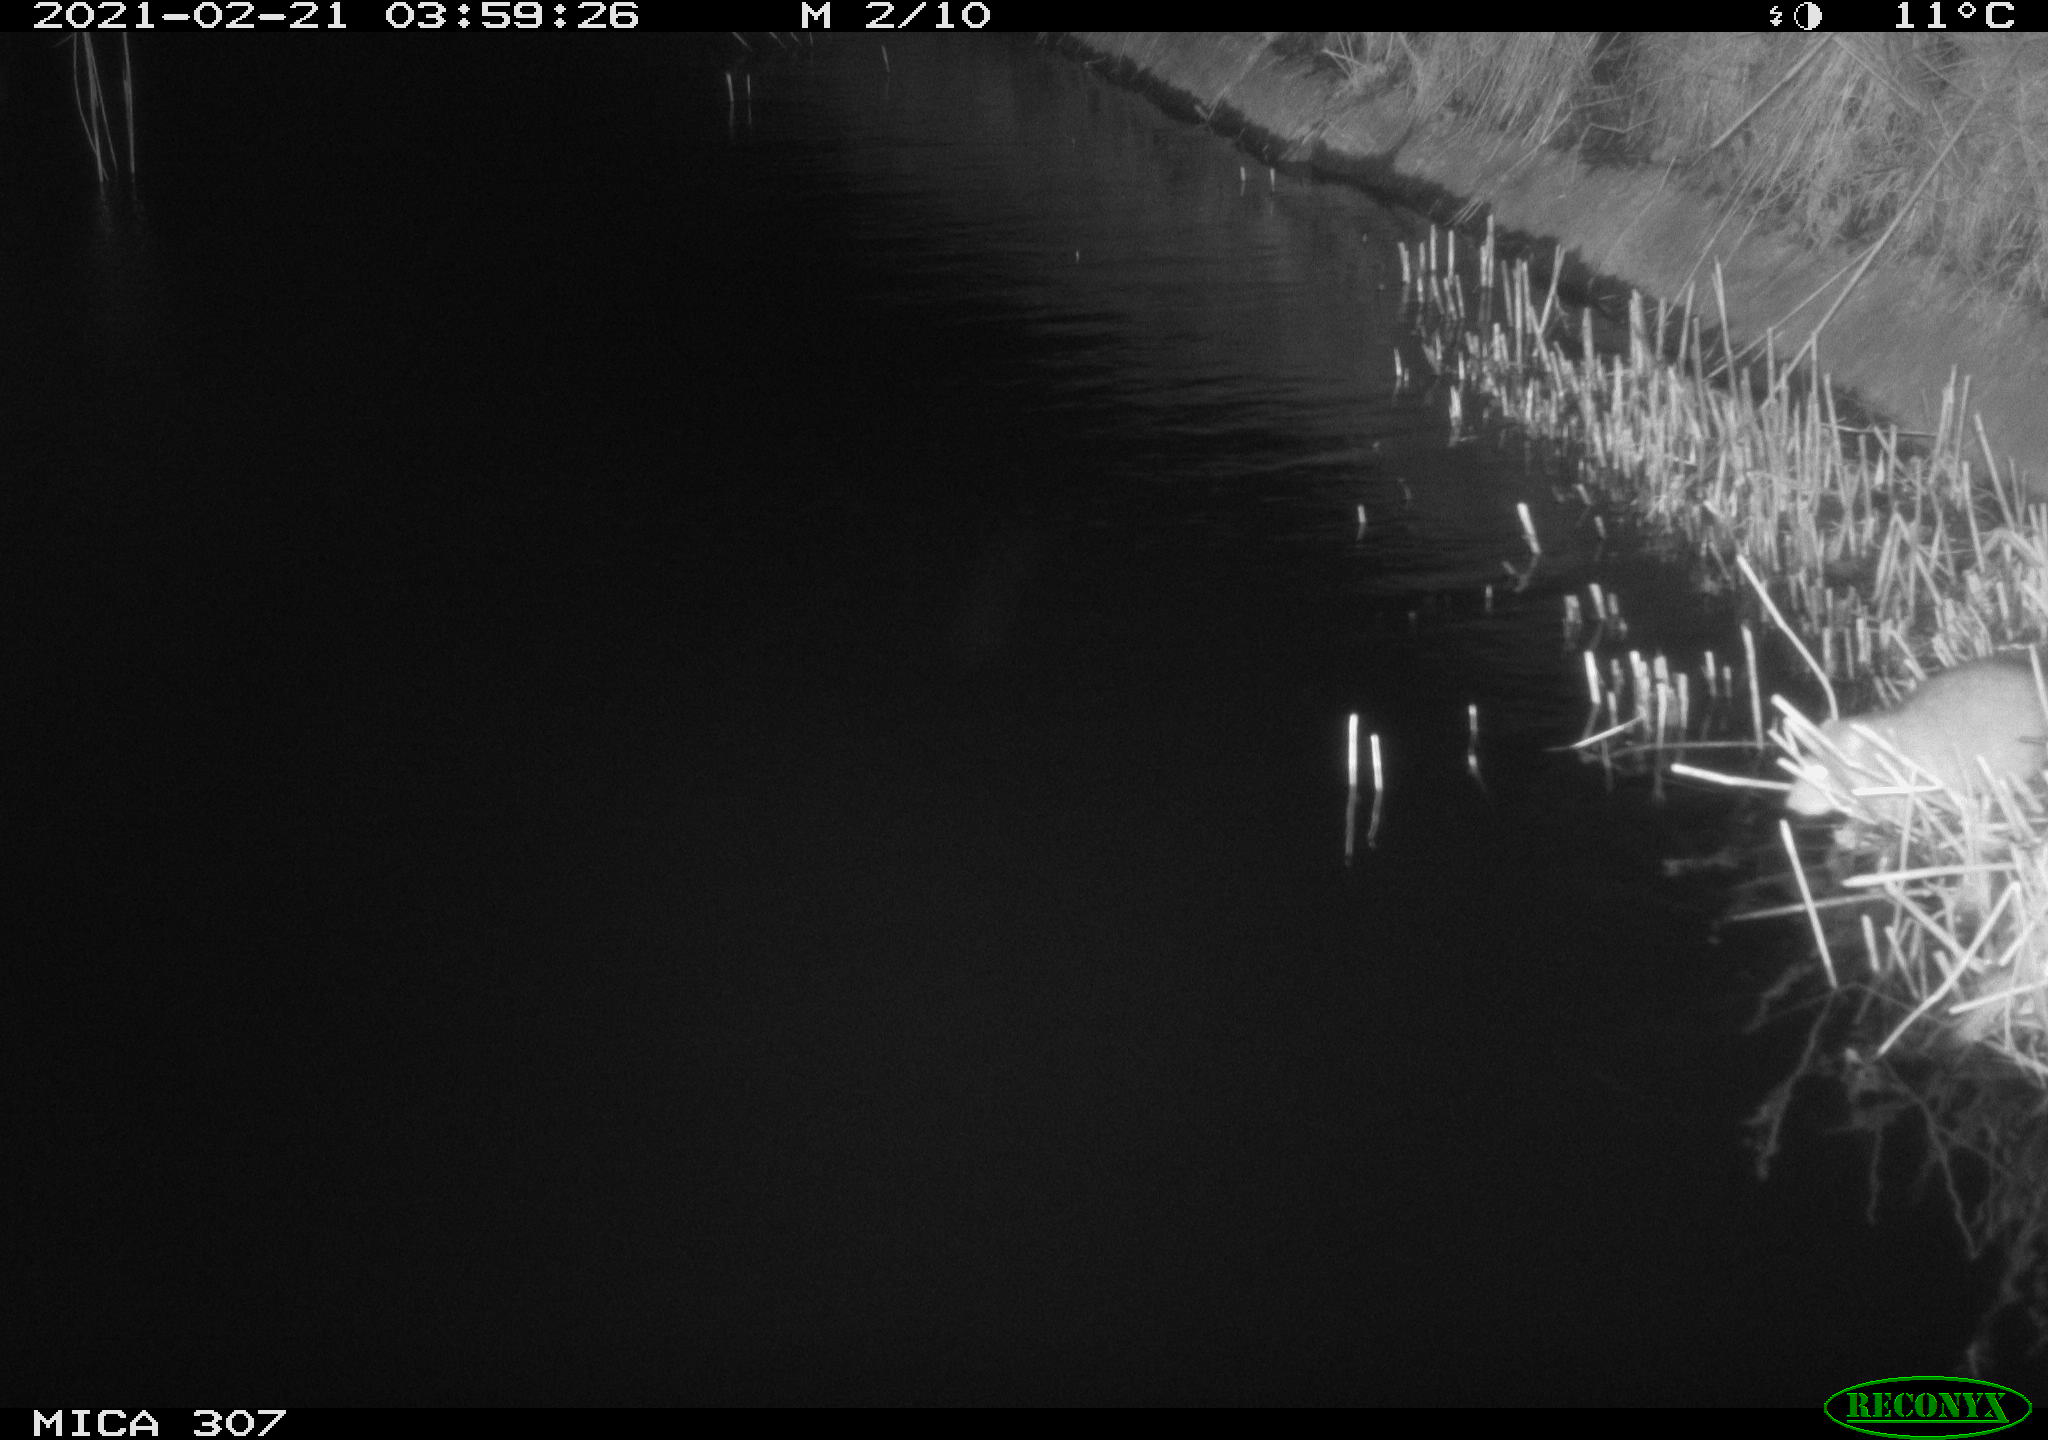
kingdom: Animalia
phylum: Chordata
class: Mammalia
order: Rodentia
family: Muridae
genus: Rattus
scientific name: Rattus norvegicus
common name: Brown rat
